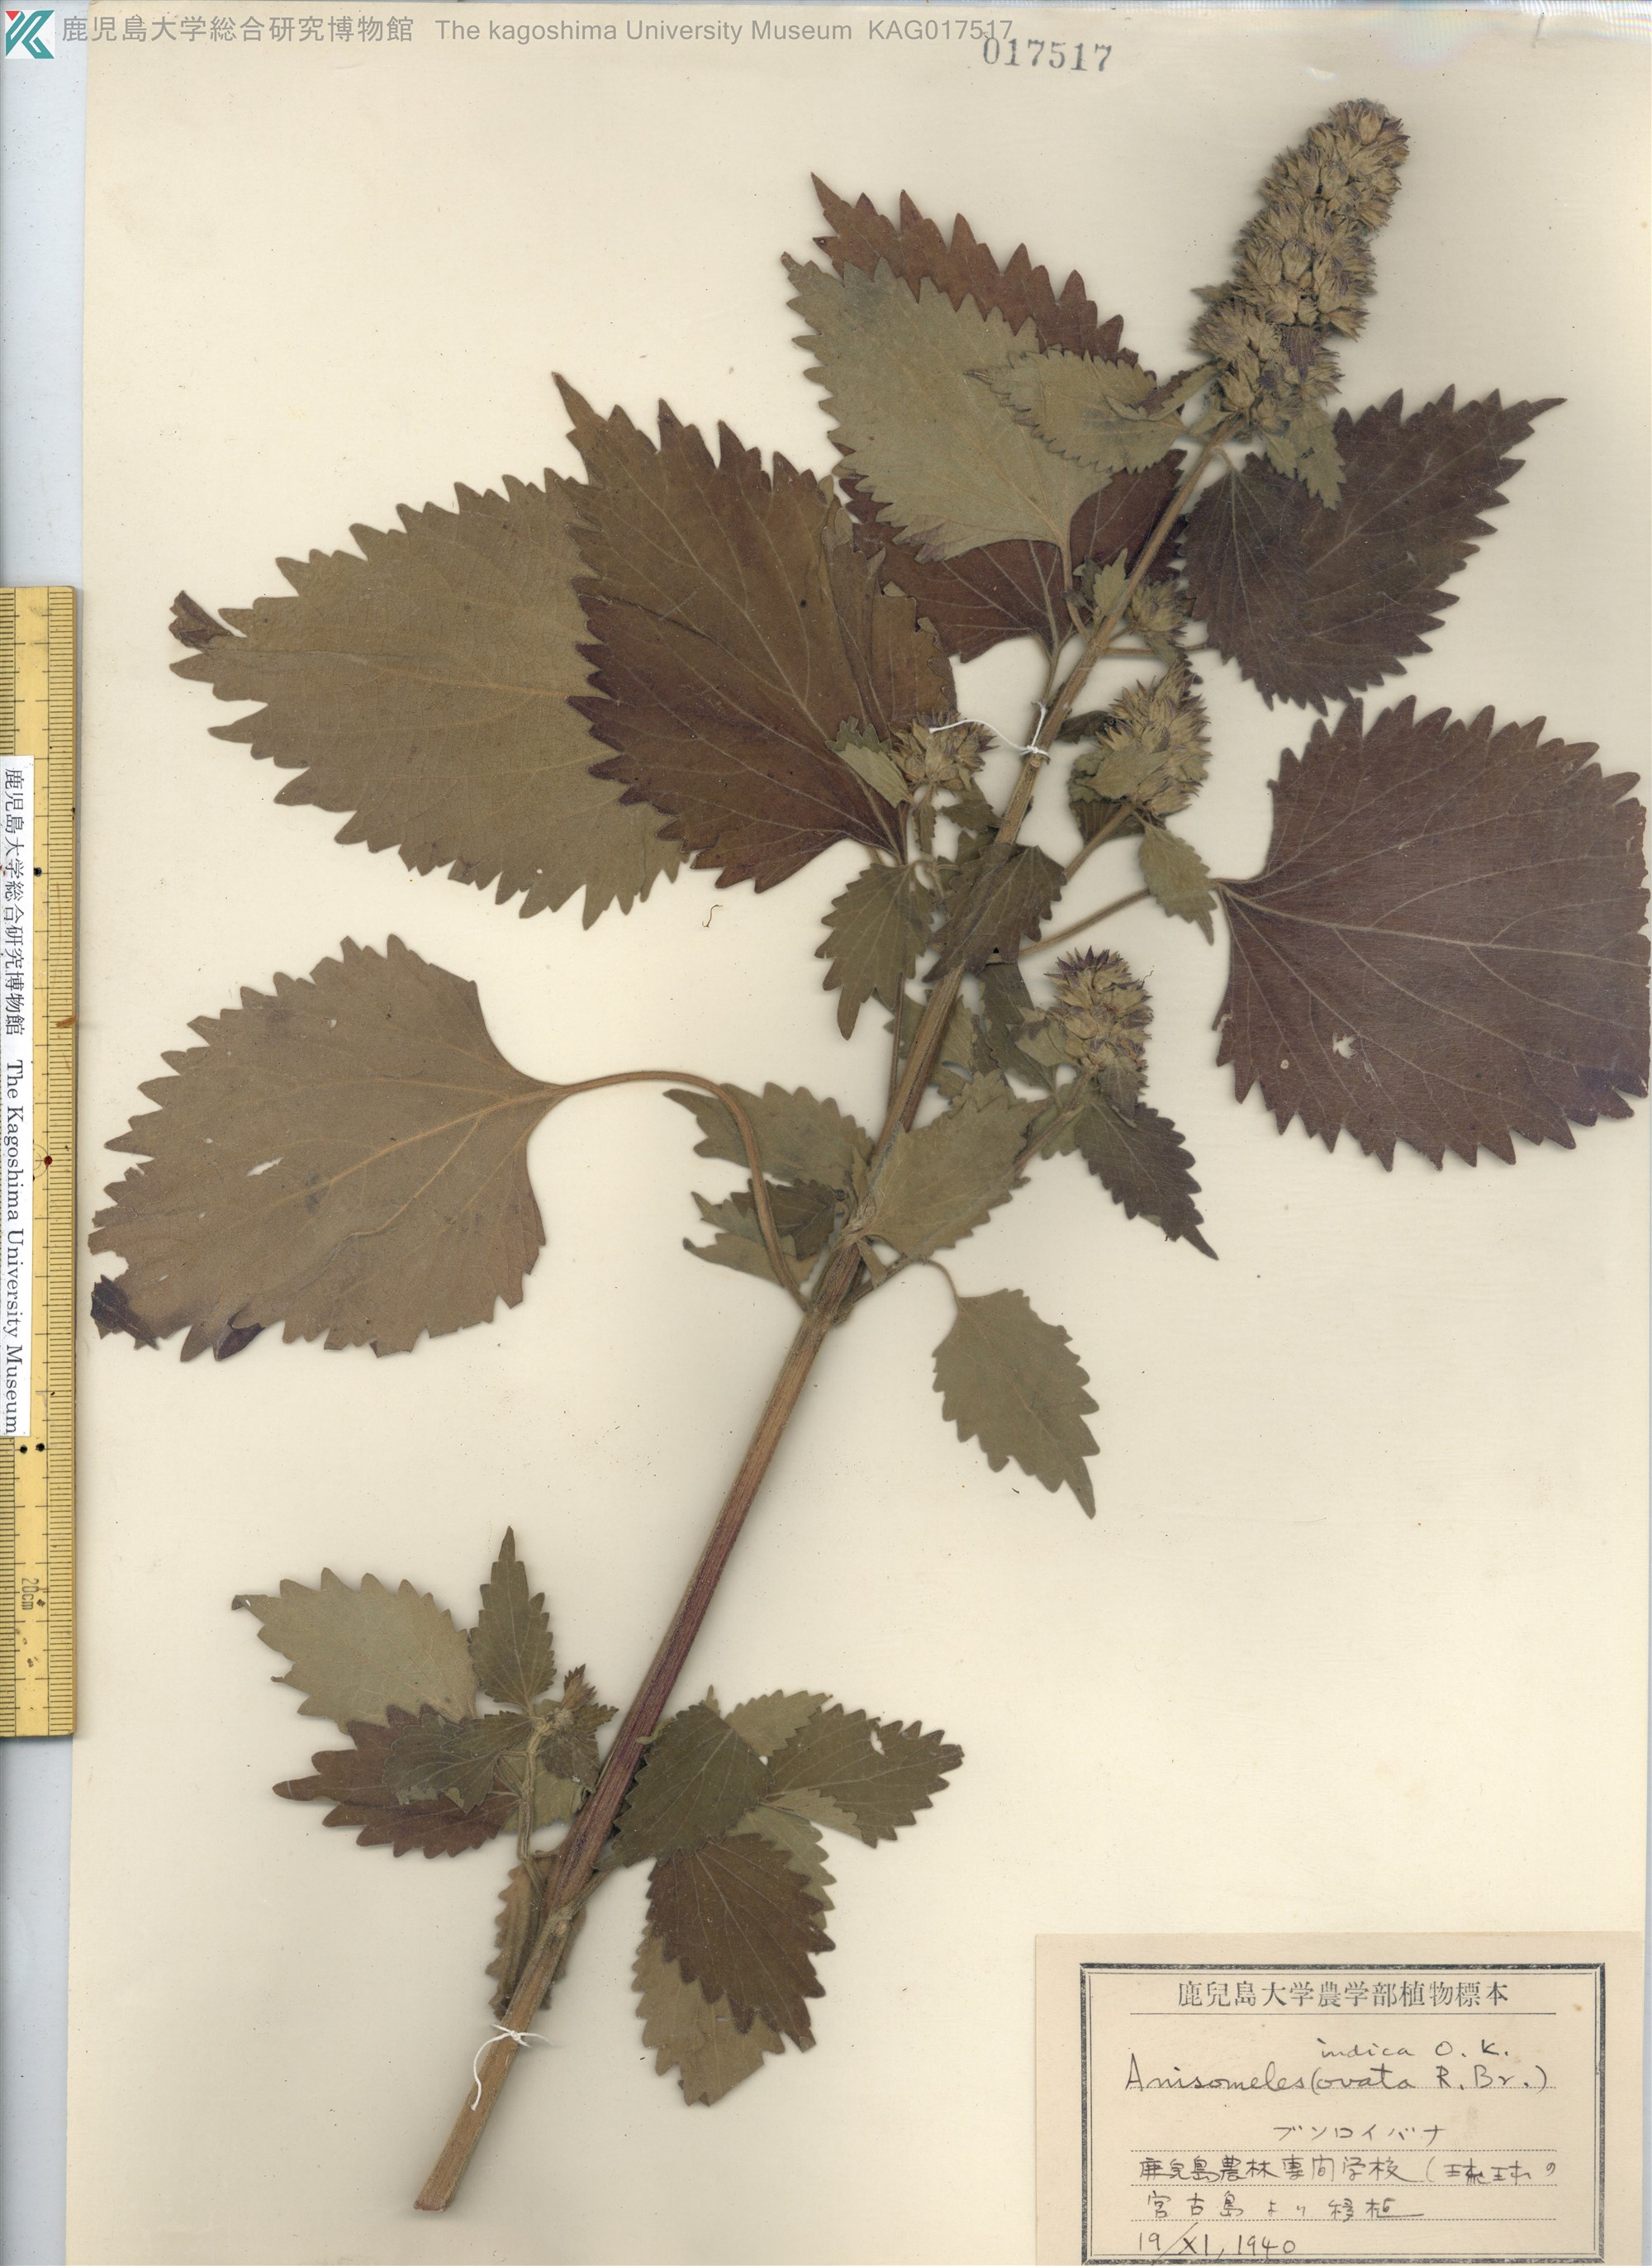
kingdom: Plantae
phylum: Tracheophyta
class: Magnoliopsida
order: Lamiales
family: Lamiaceae
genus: Anisomeles
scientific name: Anisomeles indica
